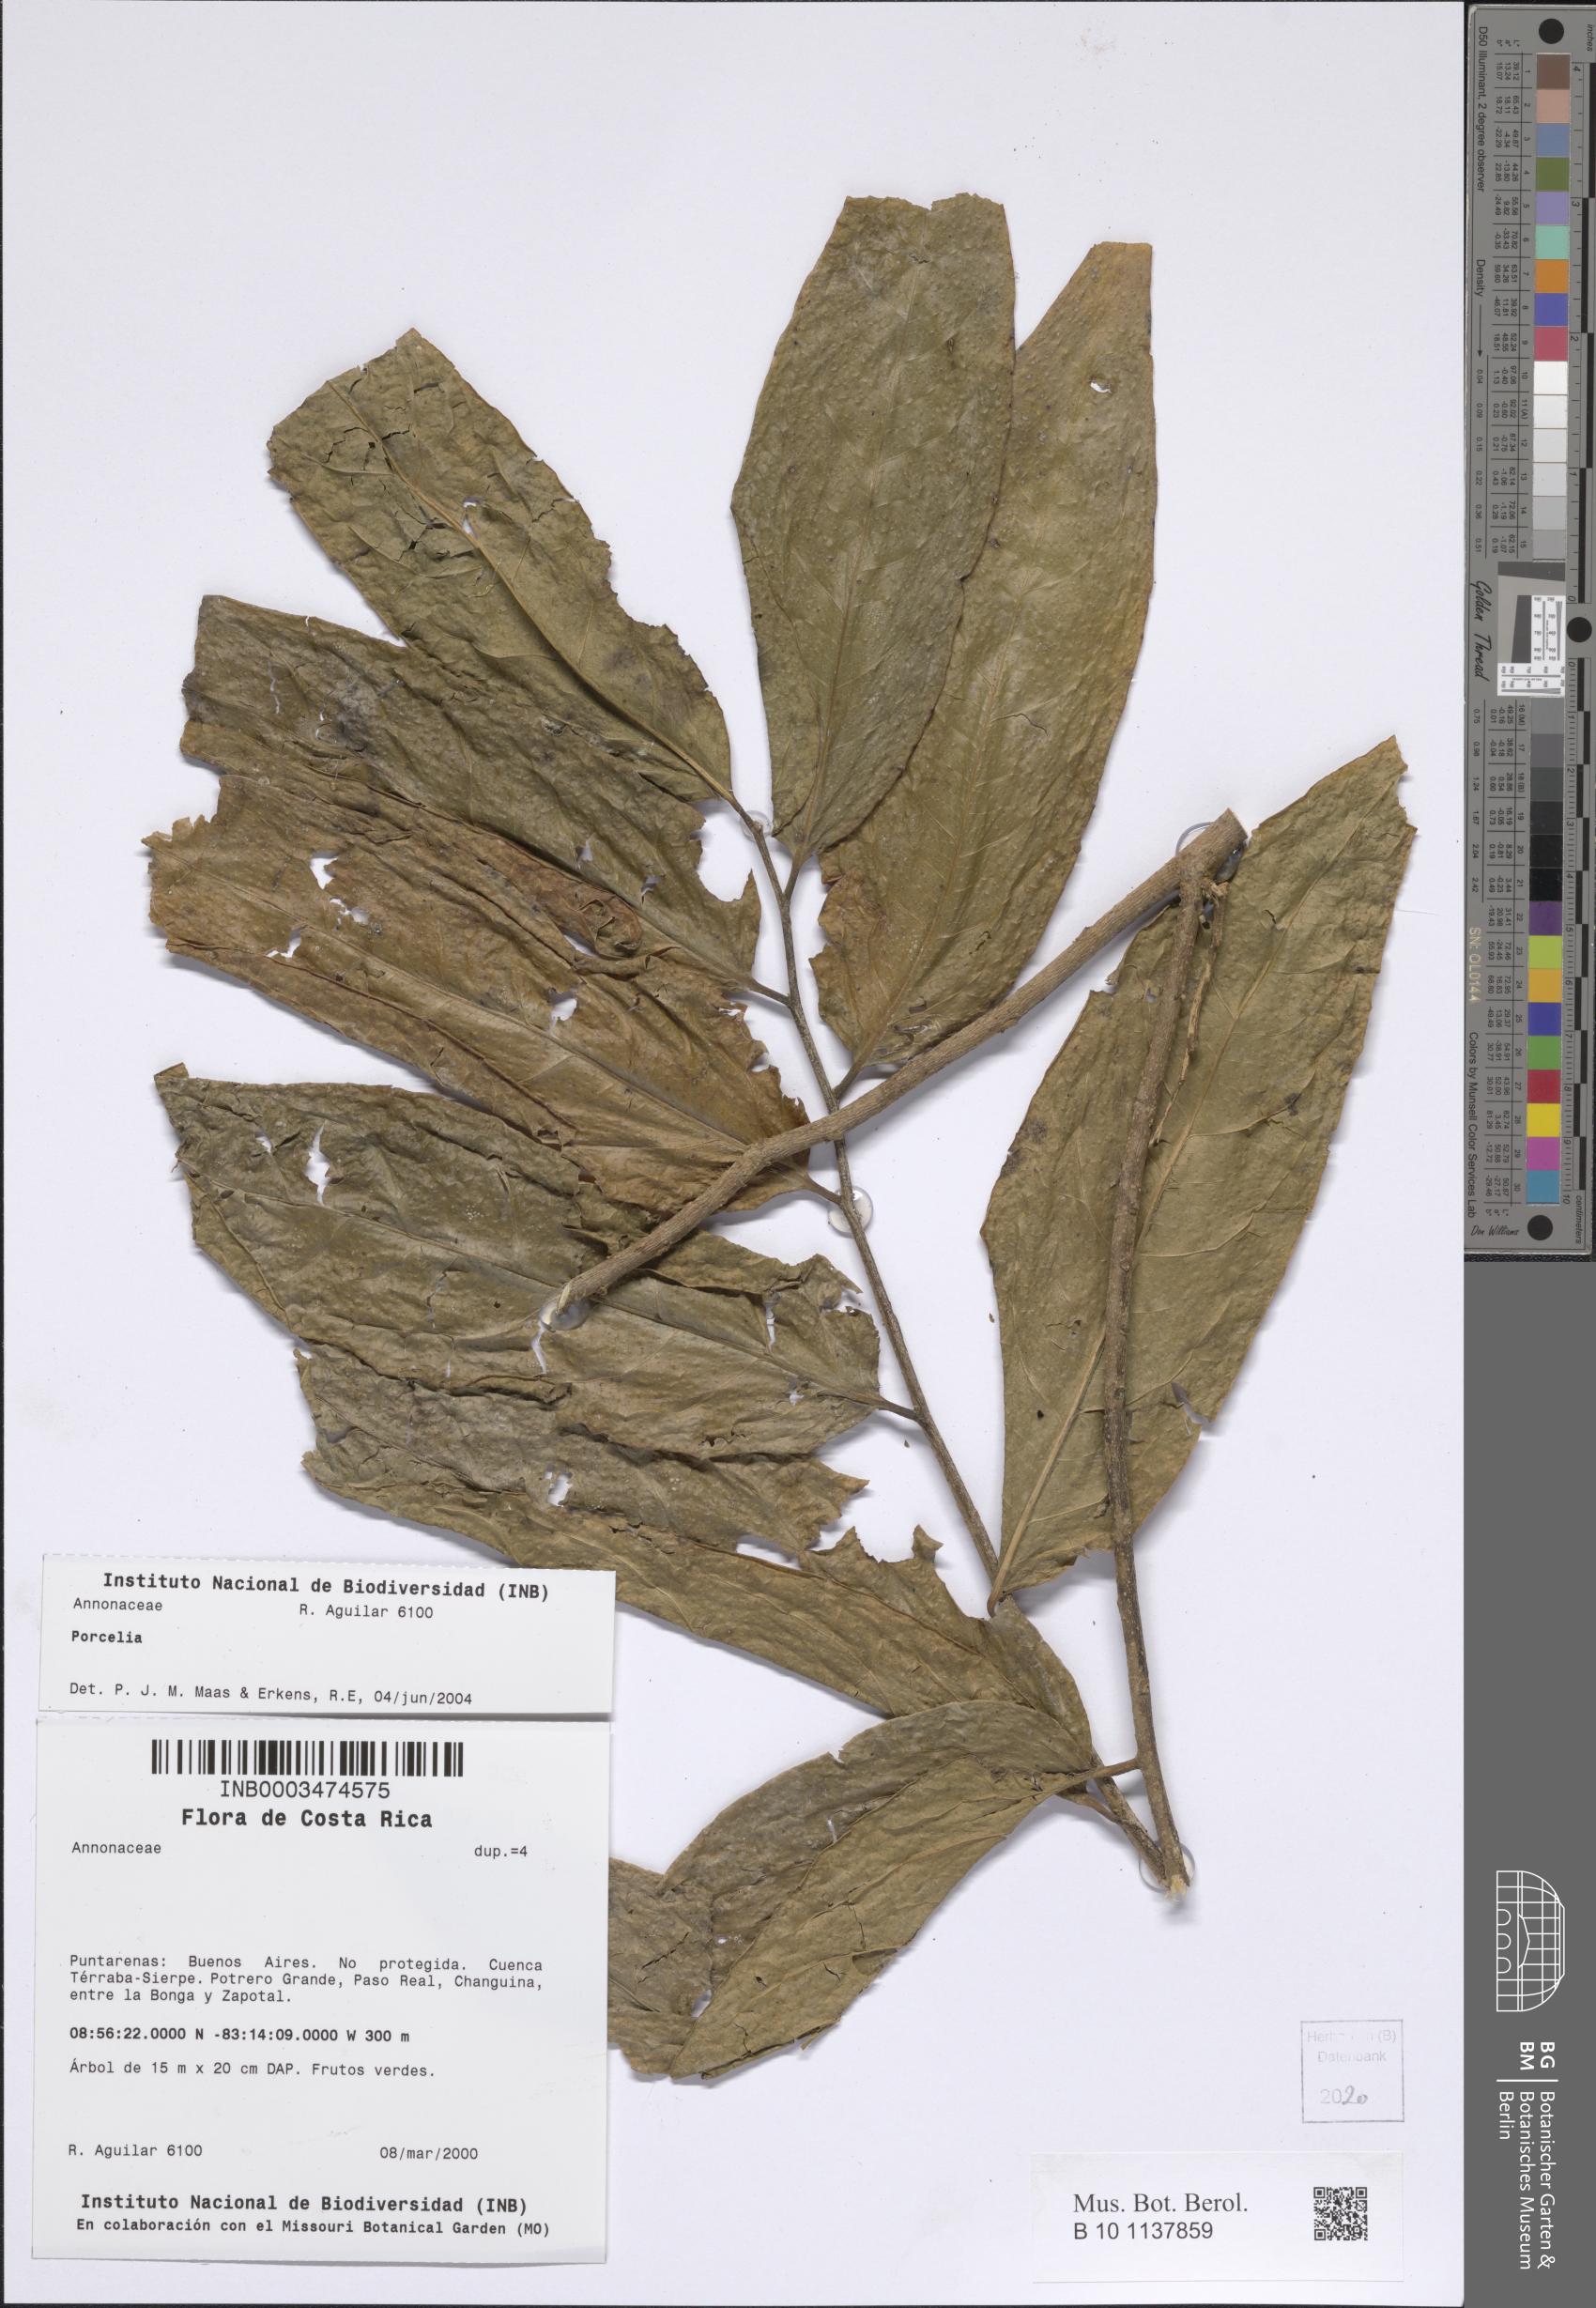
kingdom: Plantae
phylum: Tracheophyta
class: Magnoliopsida
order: Magnoliales
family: Annonaceae
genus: Porcelia
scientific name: Porcelia
